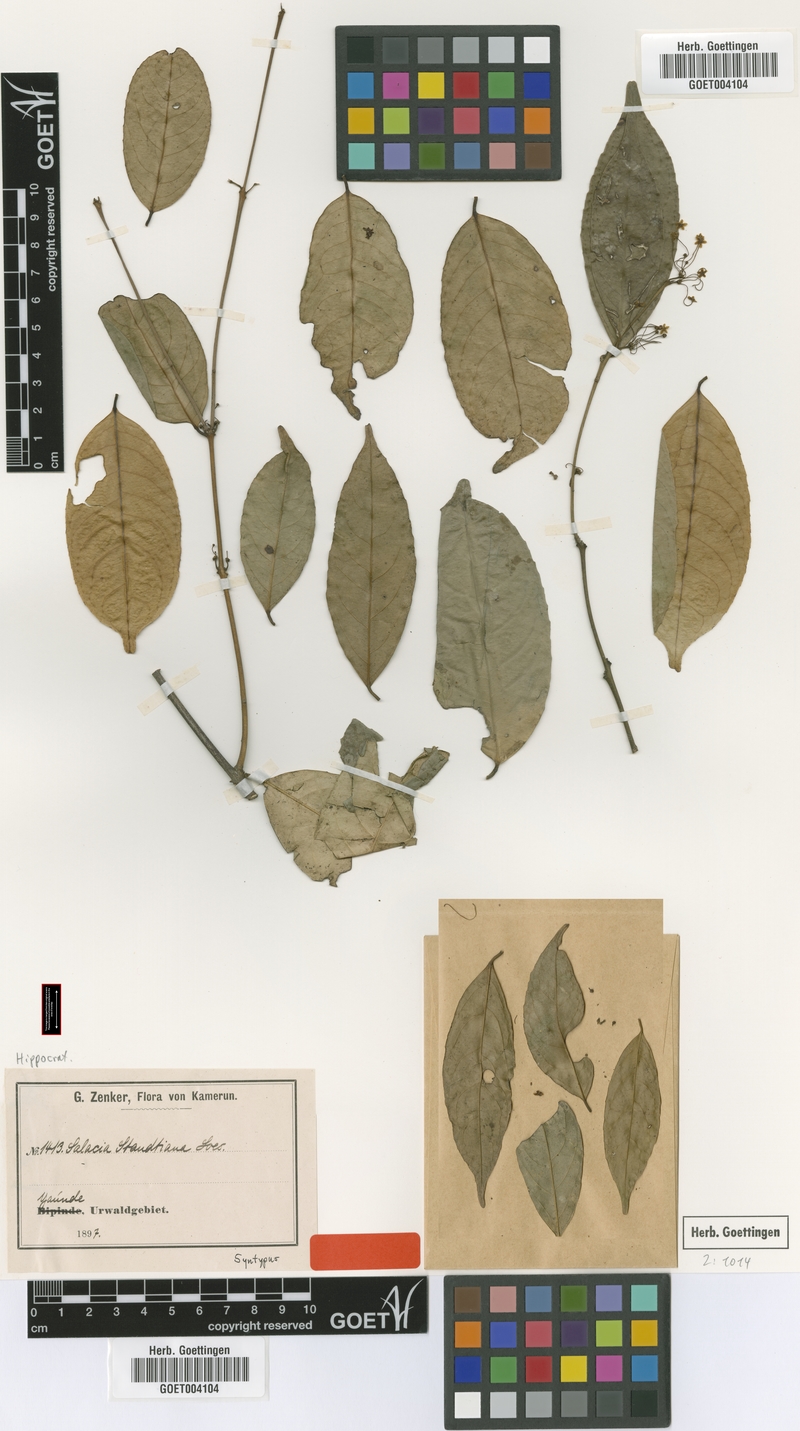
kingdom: Plantae
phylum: Tracheophyta
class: Magnoliopsida
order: Celastrales
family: Celastraceae
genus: Salacia
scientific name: Salacia staudtiana
